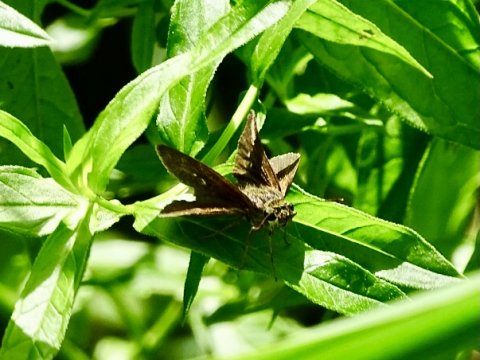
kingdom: Animalia
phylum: Arthropoda
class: Insecta
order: Lepidoptera
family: Hesperiidae
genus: Euphyes
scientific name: Euphyes vestris
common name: Dun Skipper
